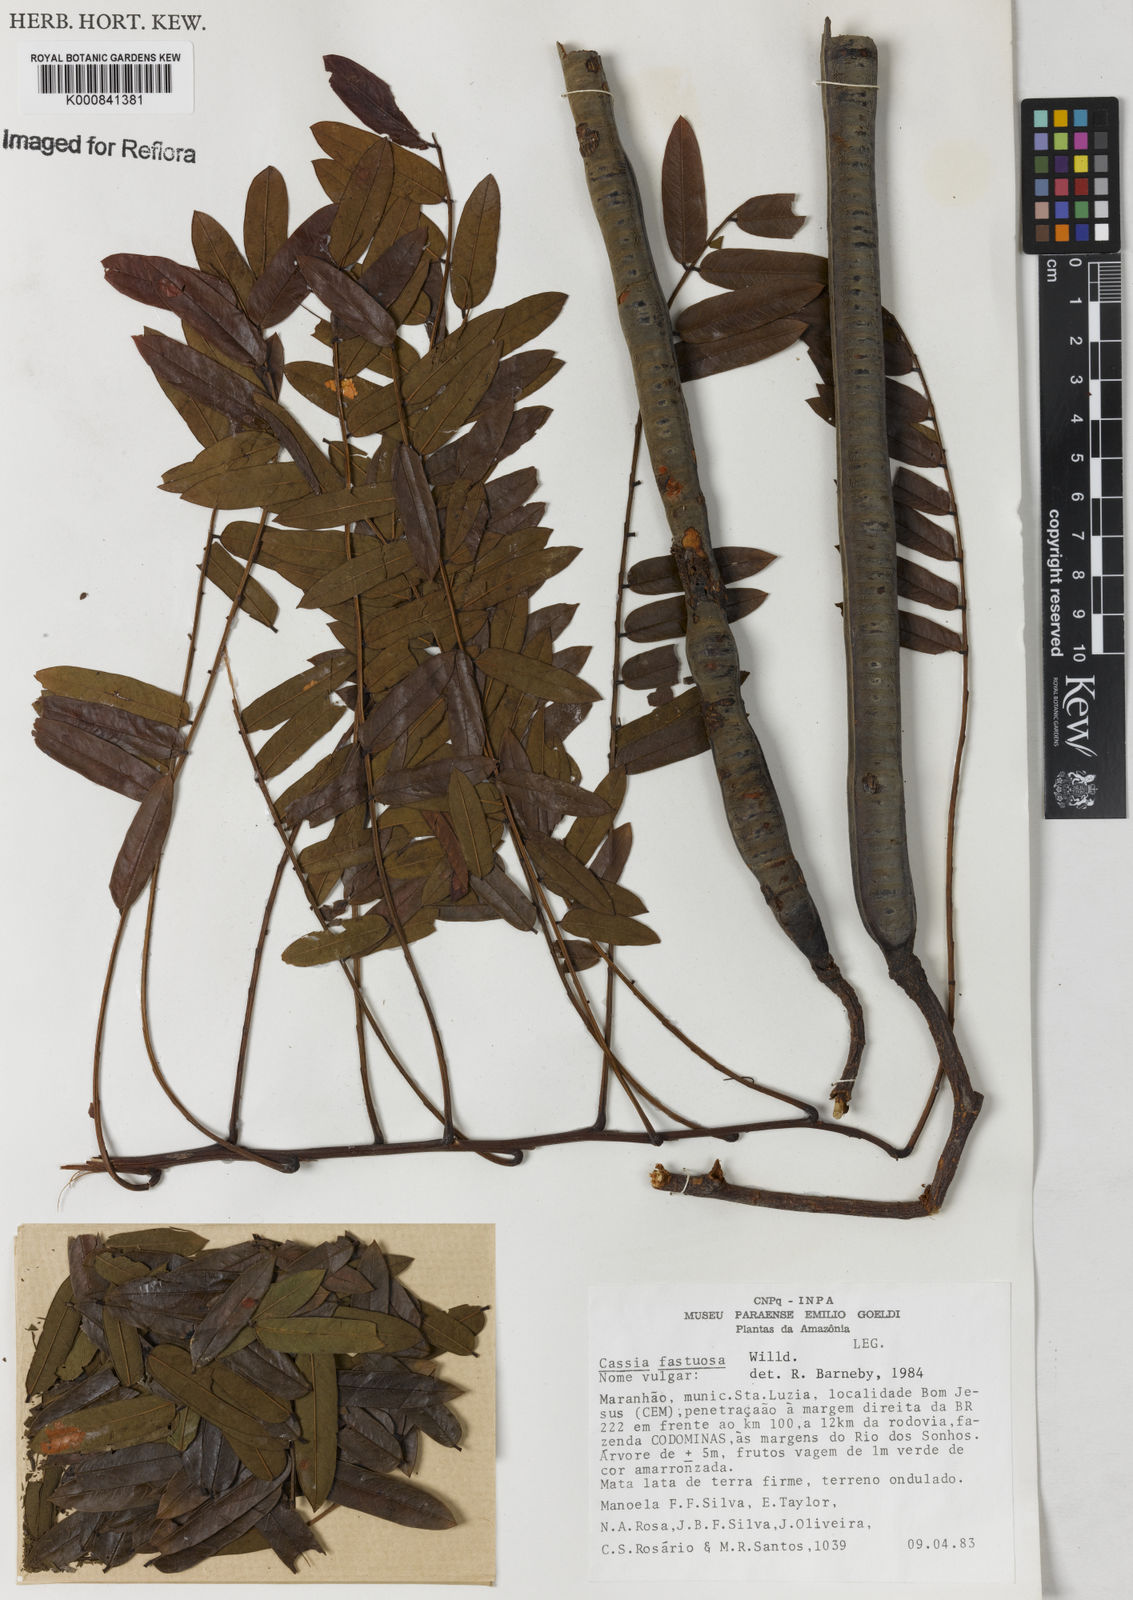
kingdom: Plantae
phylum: Tracheophyta
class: Magnoliopsida
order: Fabales
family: Fabaceae
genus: Cassia
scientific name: Cassia
